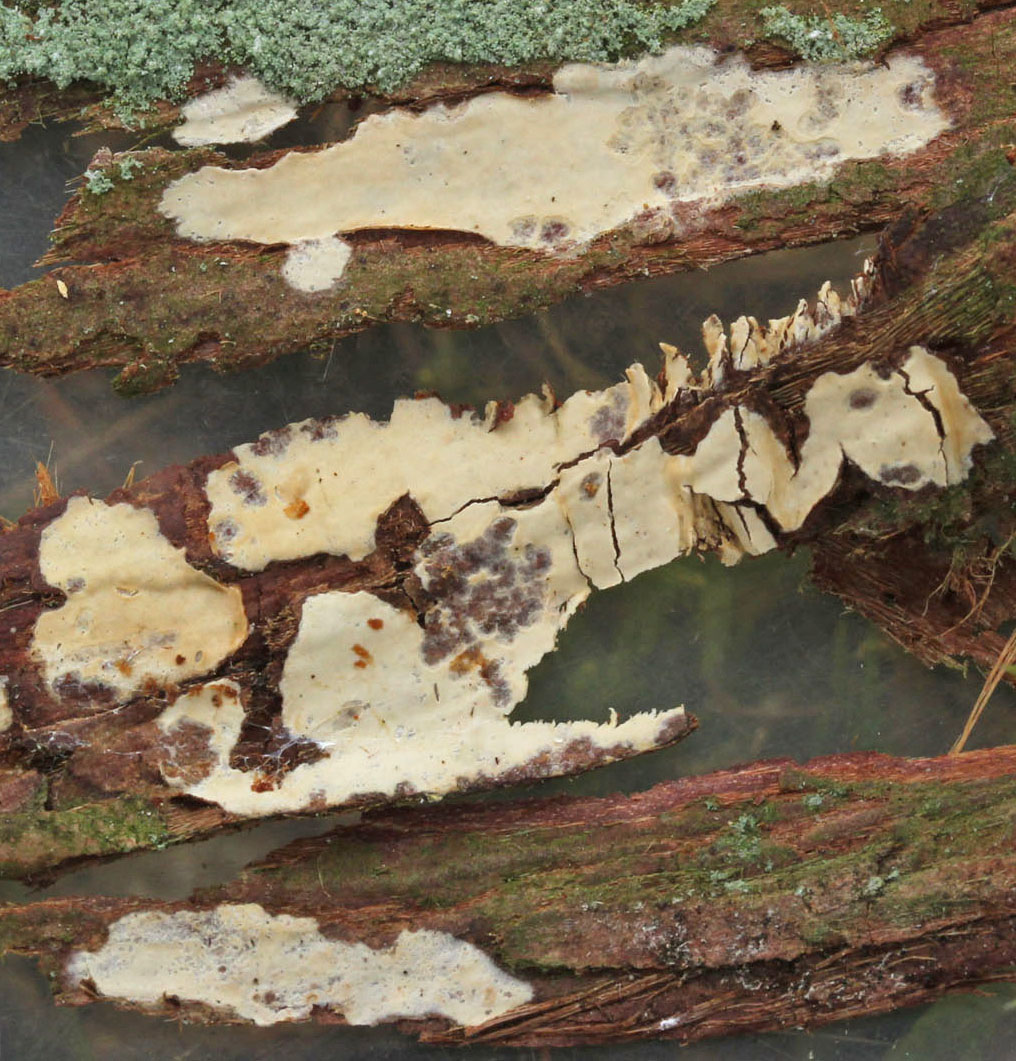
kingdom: Fungi
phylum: Basidiomycota
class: Agaricomycetes
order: Agaricales
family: Radulomycetaceae
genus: Radulomyces
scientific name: Radulomyces confluens
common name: glat naftalinskind
